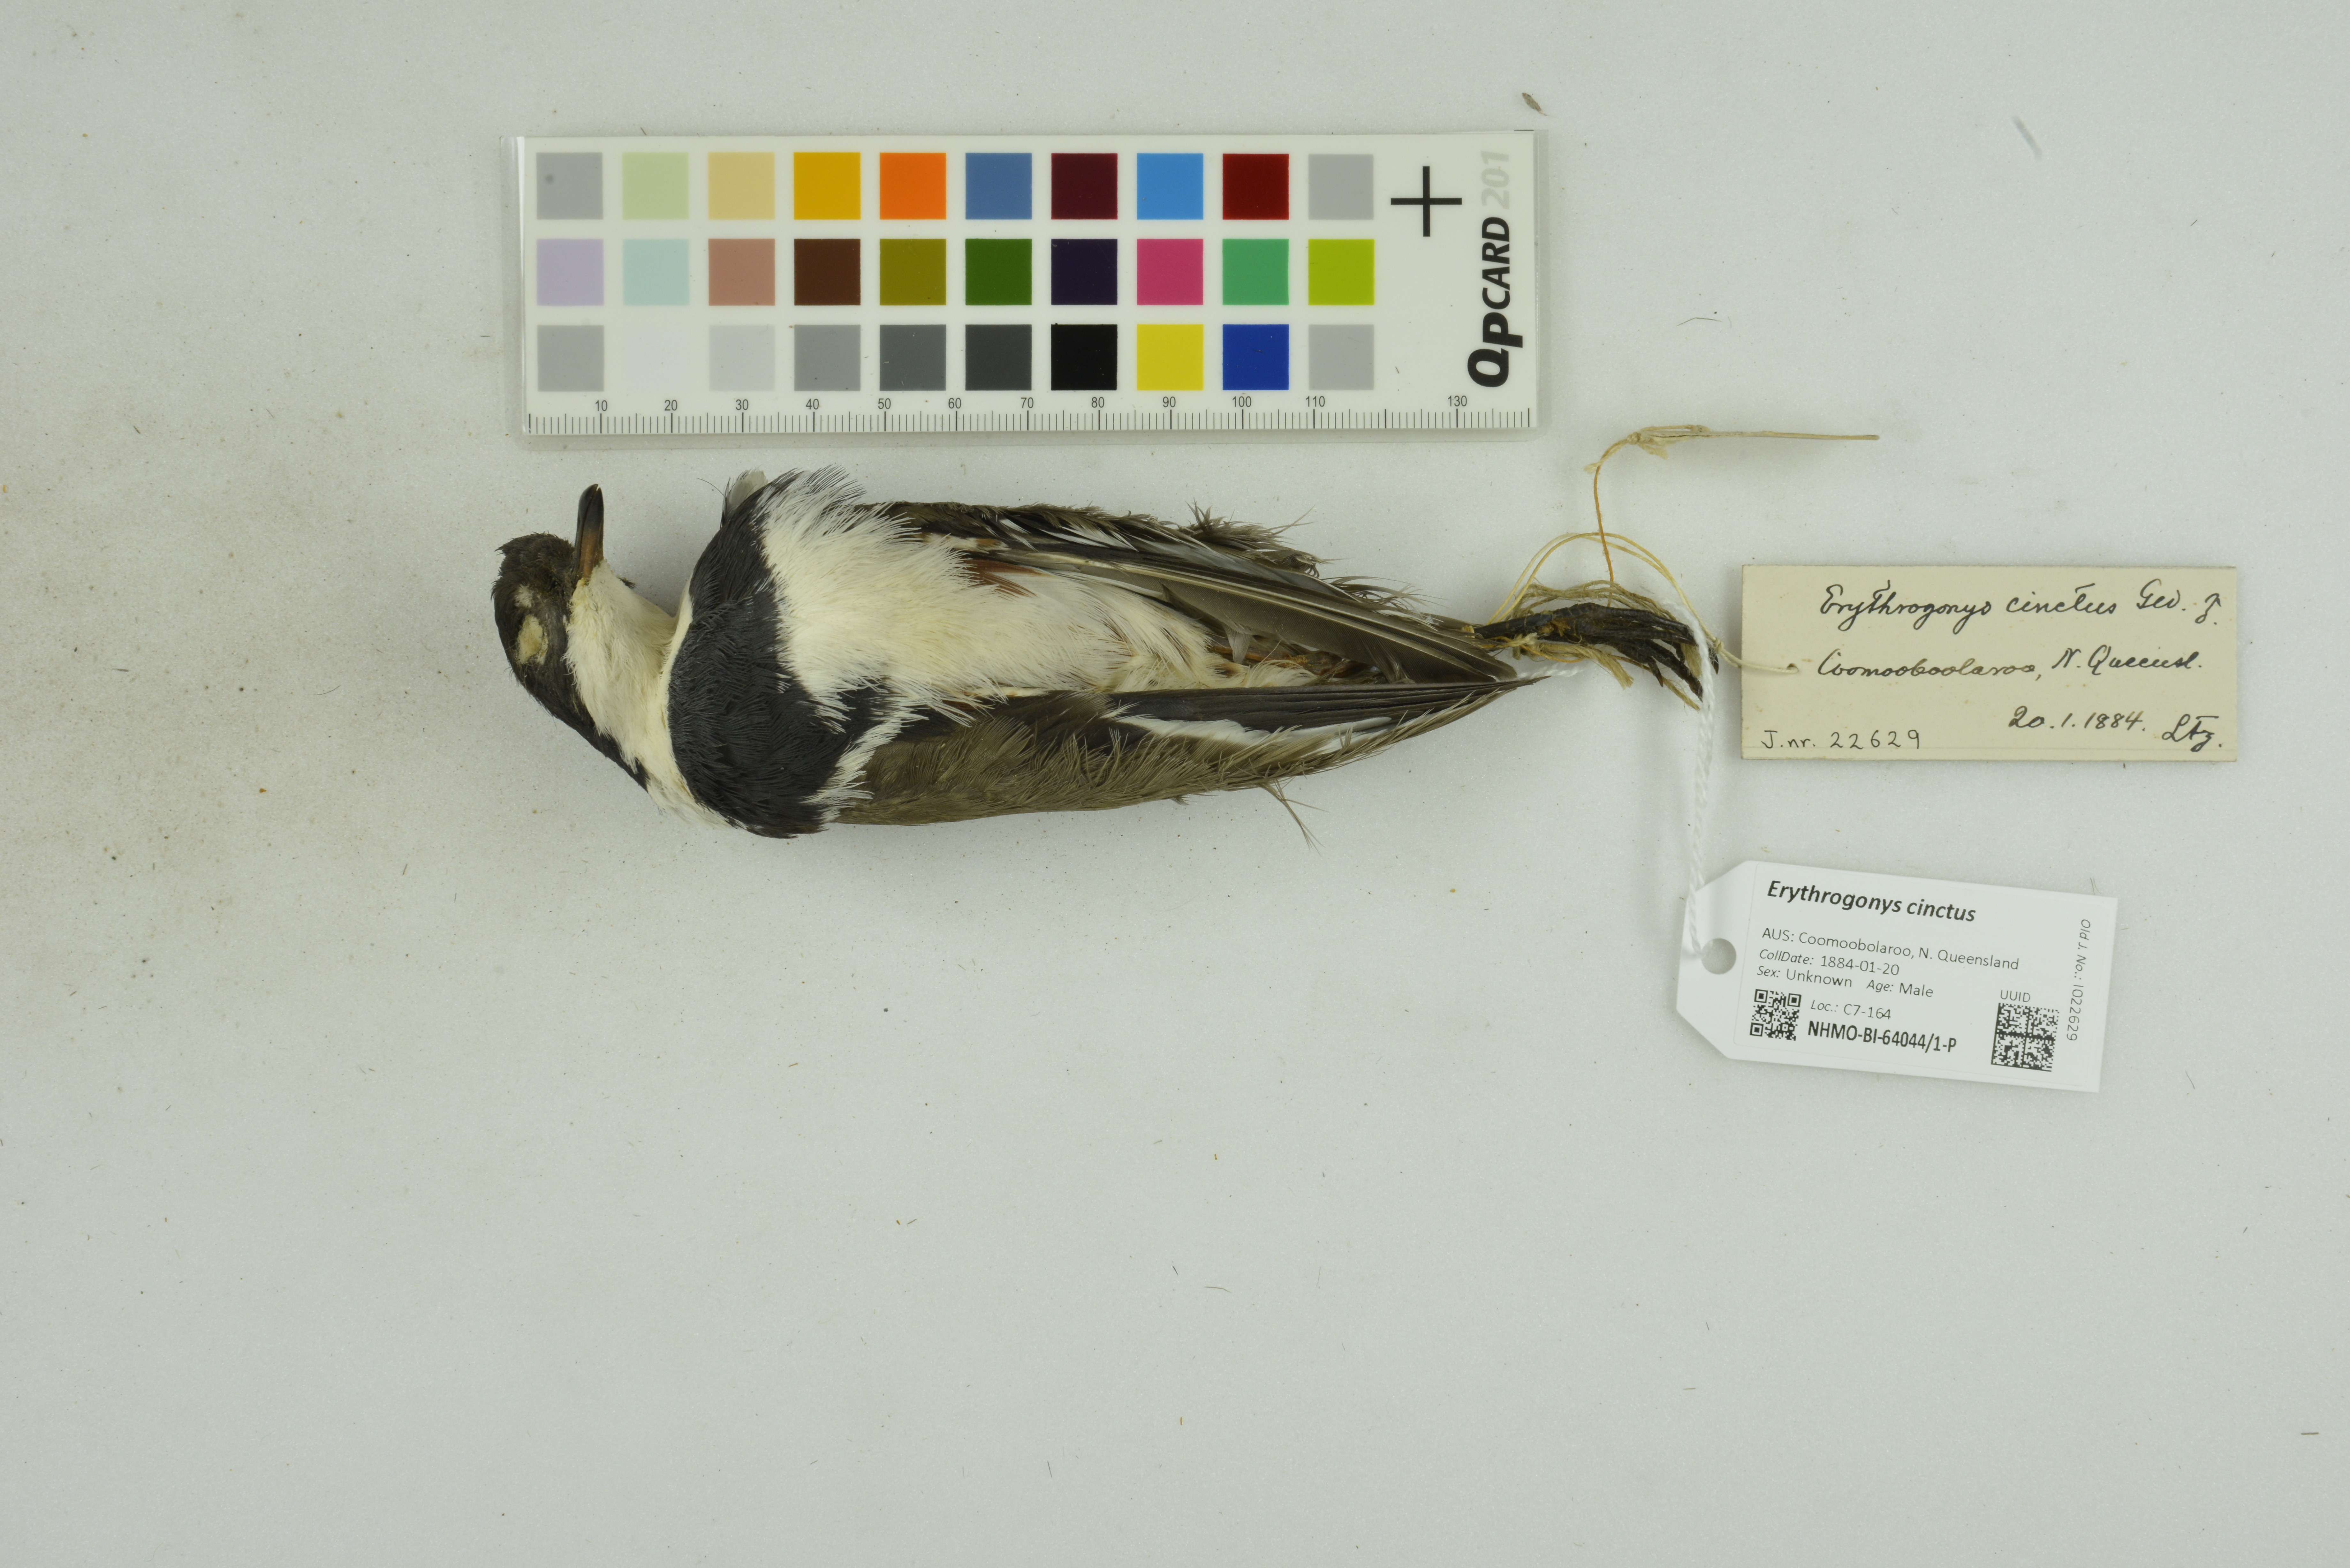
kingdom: Animalia
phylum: Chordata
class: Aves
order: Charadriiformes
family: Charadriidae
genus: Erythrogonys
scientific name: Erythrogonys cinctus
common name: Red-kneed dotterel
